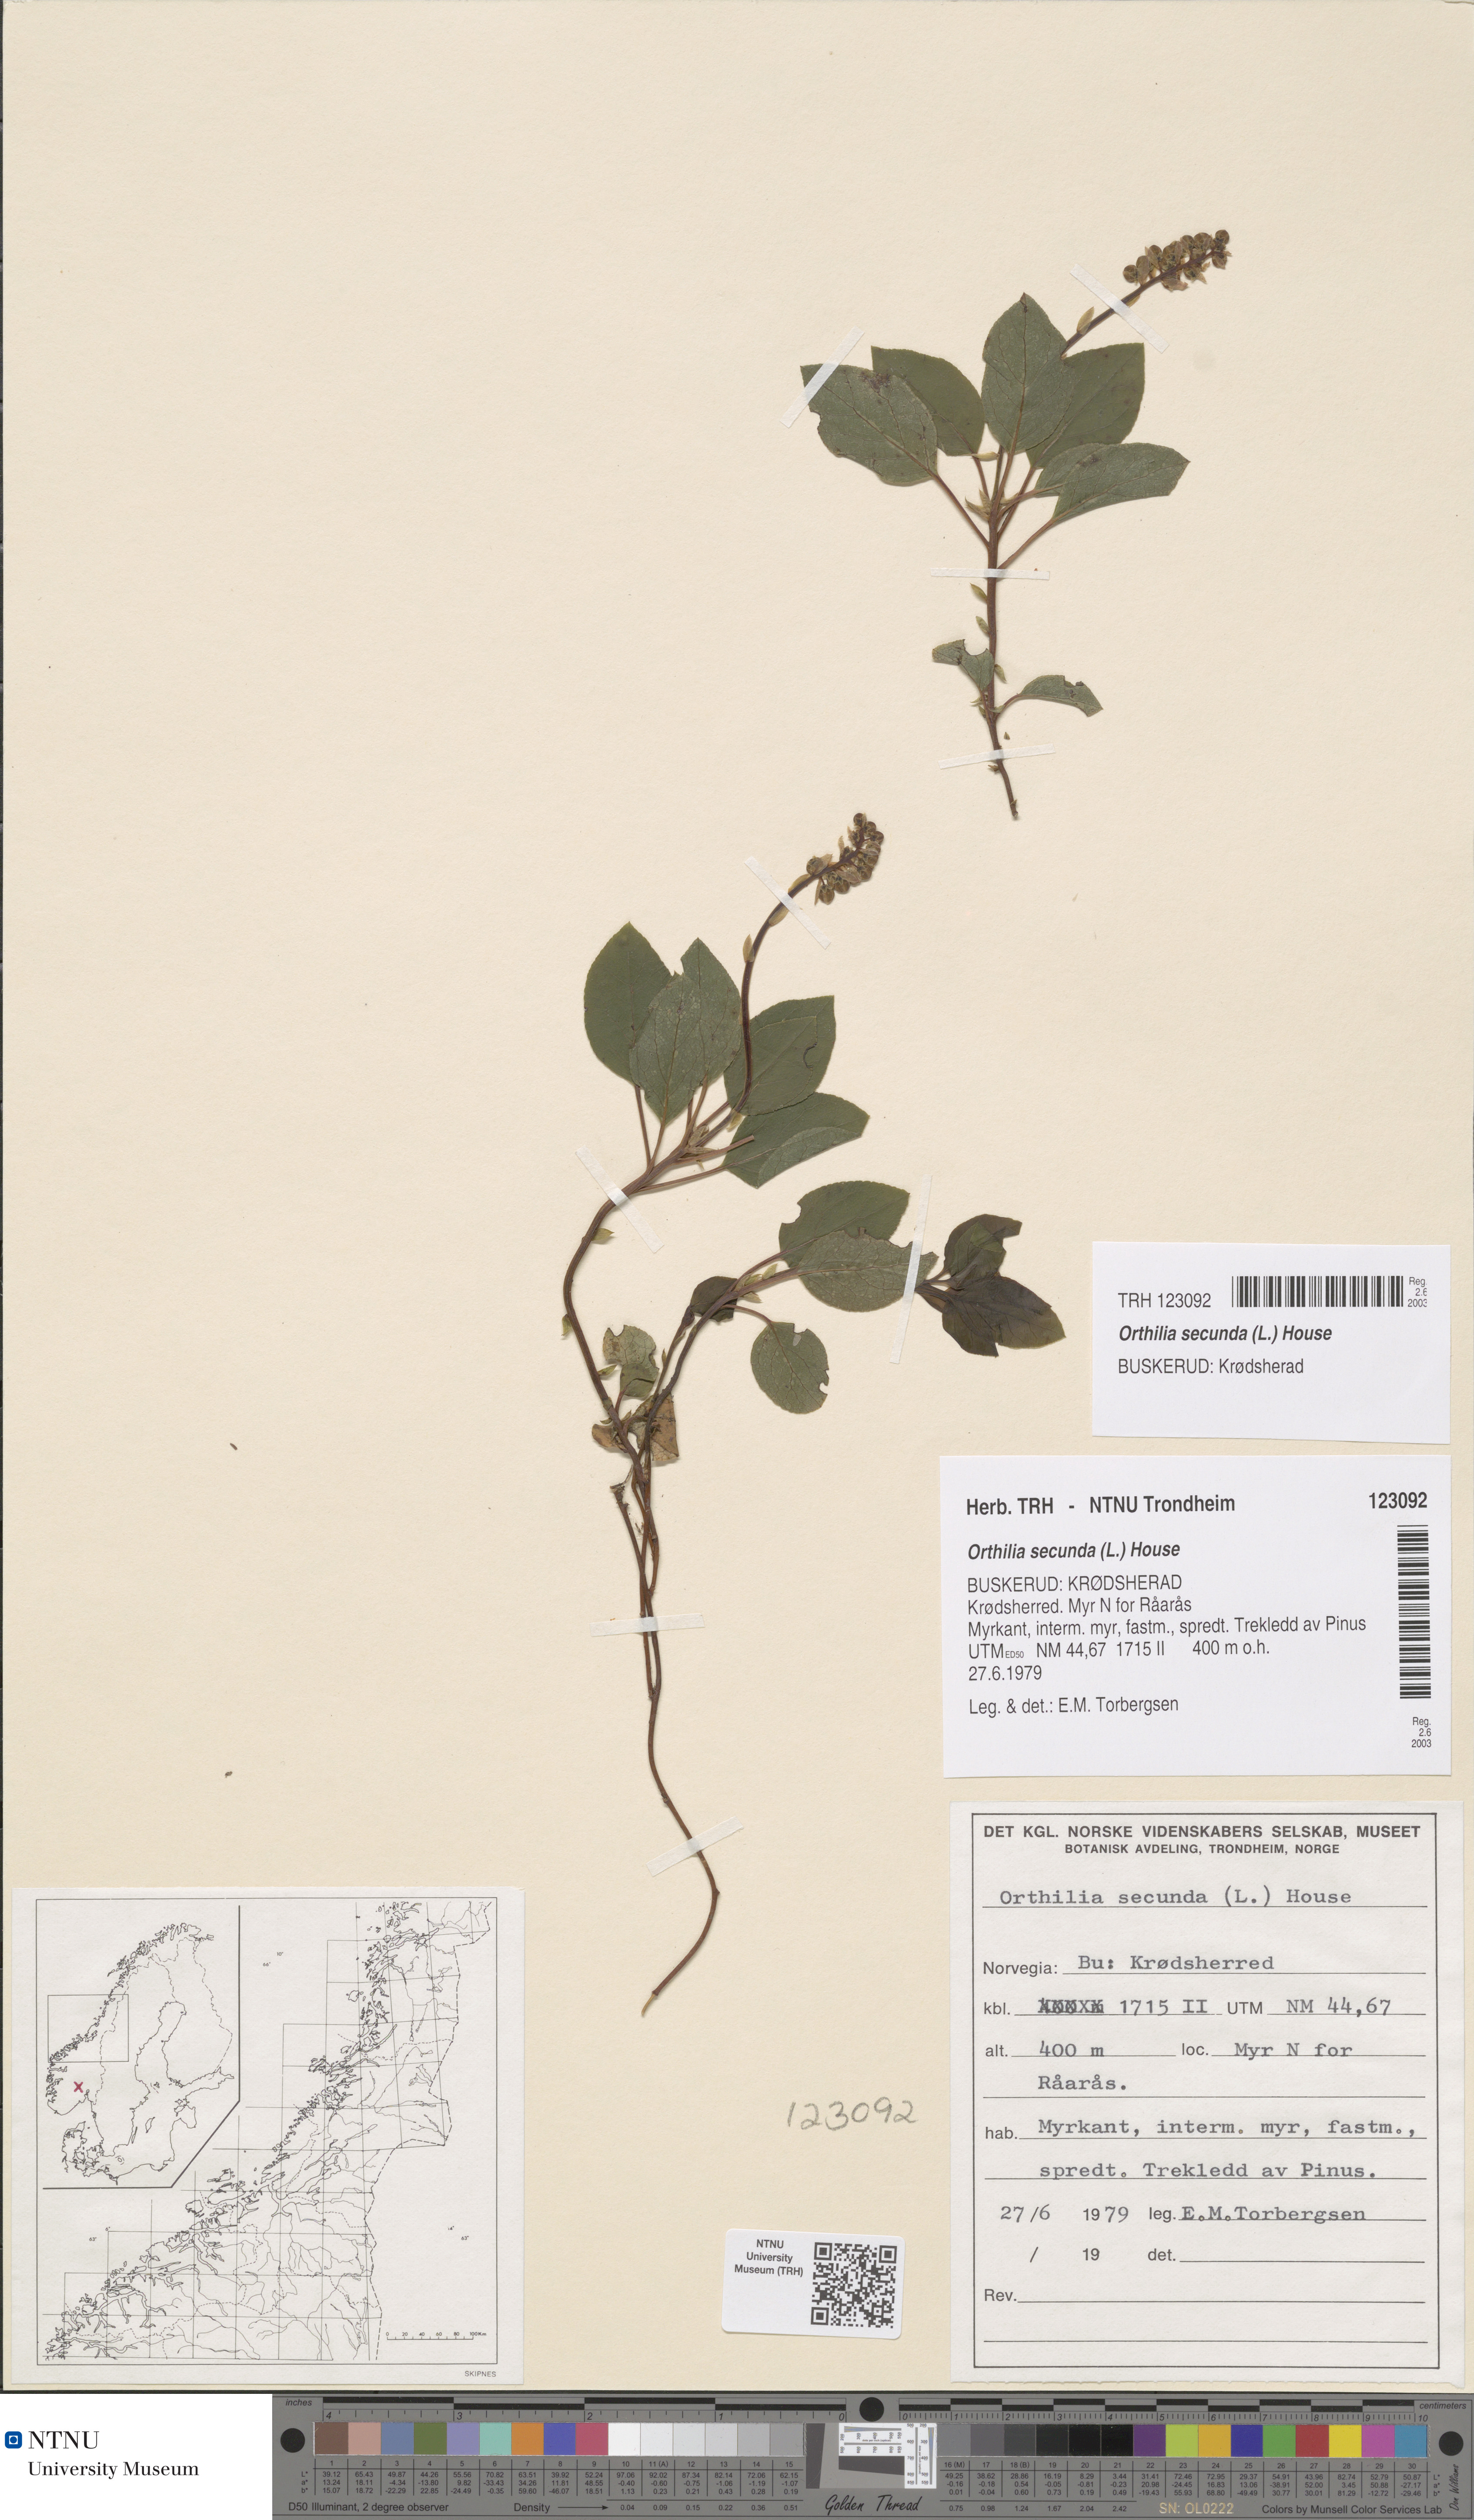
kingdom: Plantae
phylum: Tracheophyta
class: Magnoliopsida
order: Ericales
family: Ericaceae
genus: Orthilia
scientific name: Orthilia secunda
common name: One-sided orthilia
